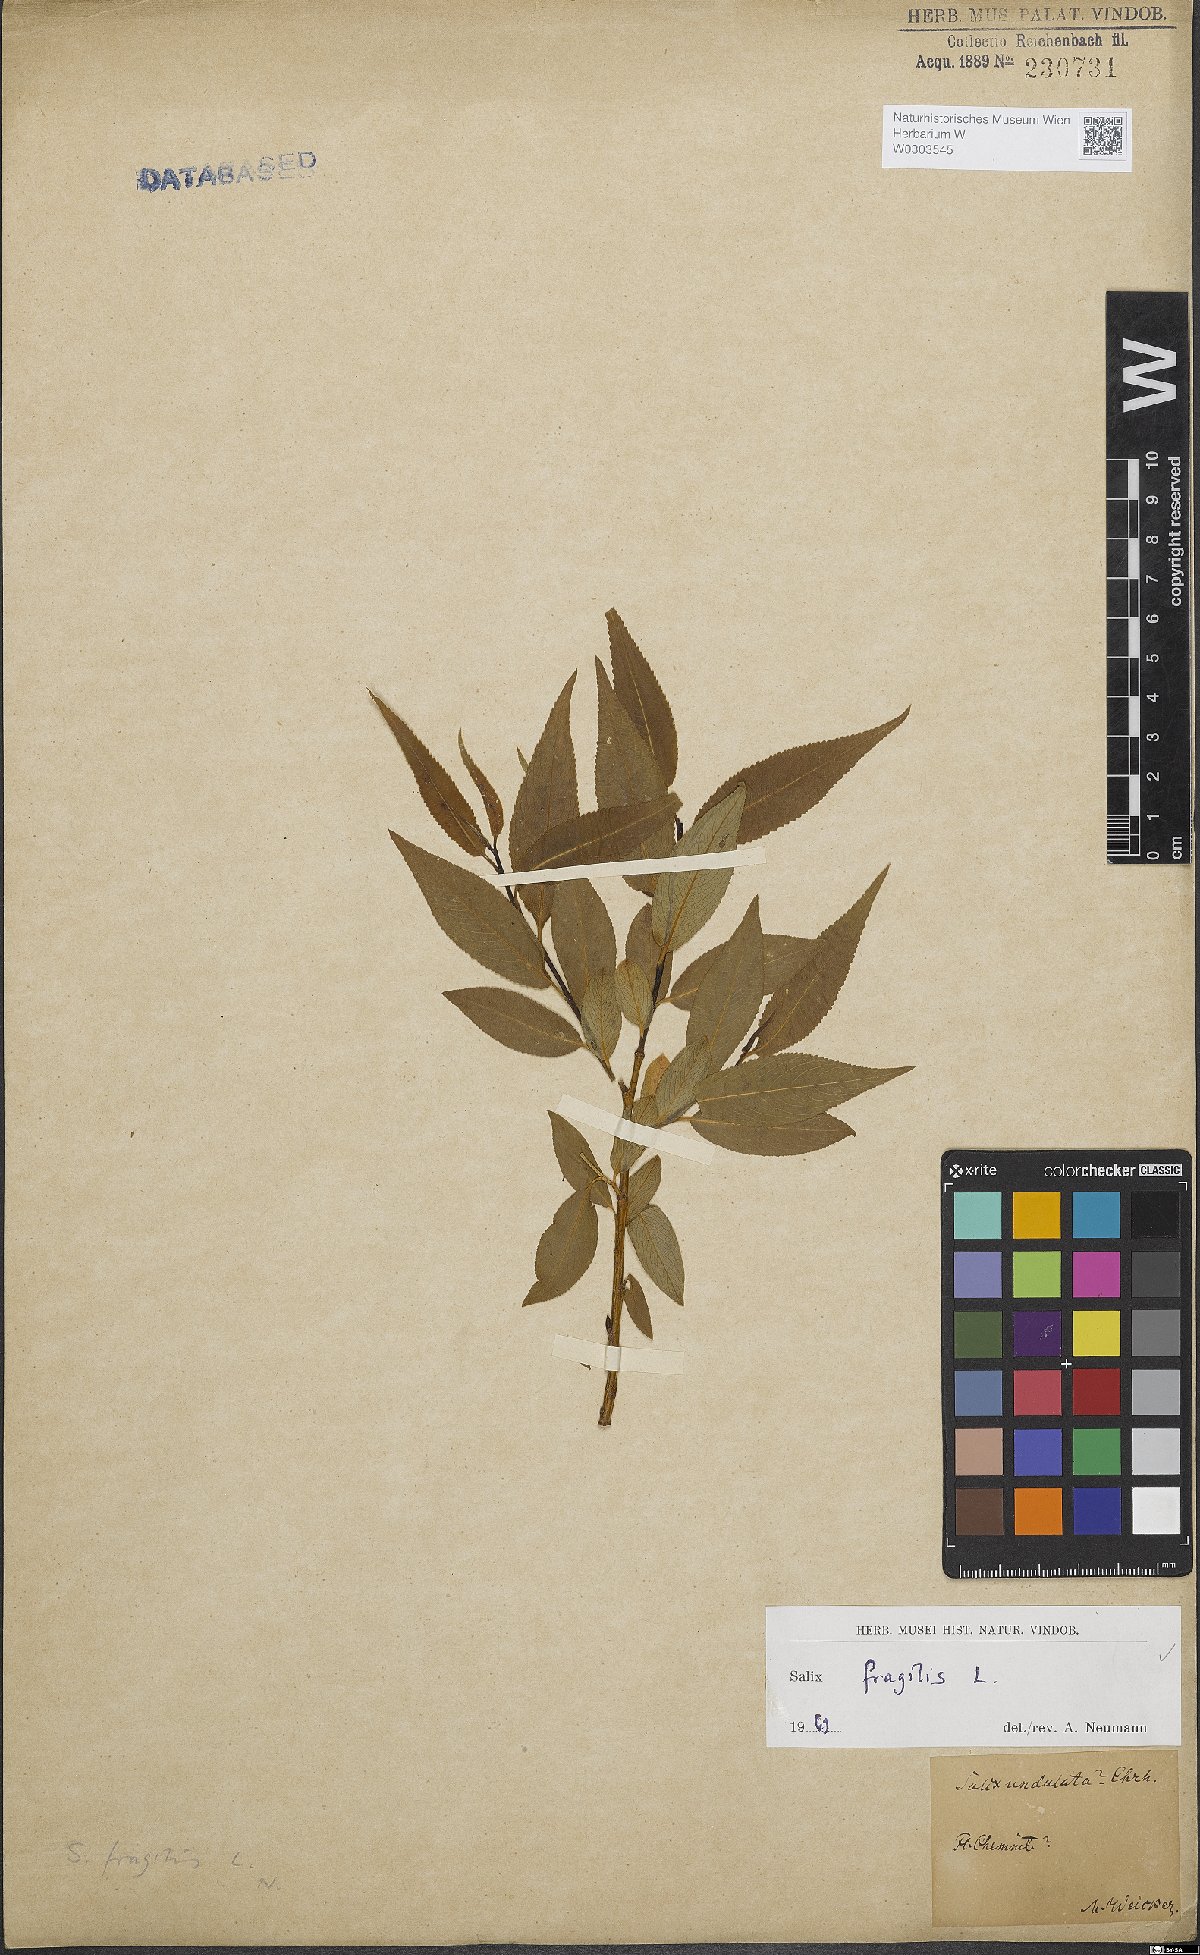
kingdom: Plantae
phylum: Tracheophyta
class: Magnoliopsida
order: Malpighiales
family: Salicaceae
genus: Salix
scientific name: Salix fragilis
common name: Crack willow
